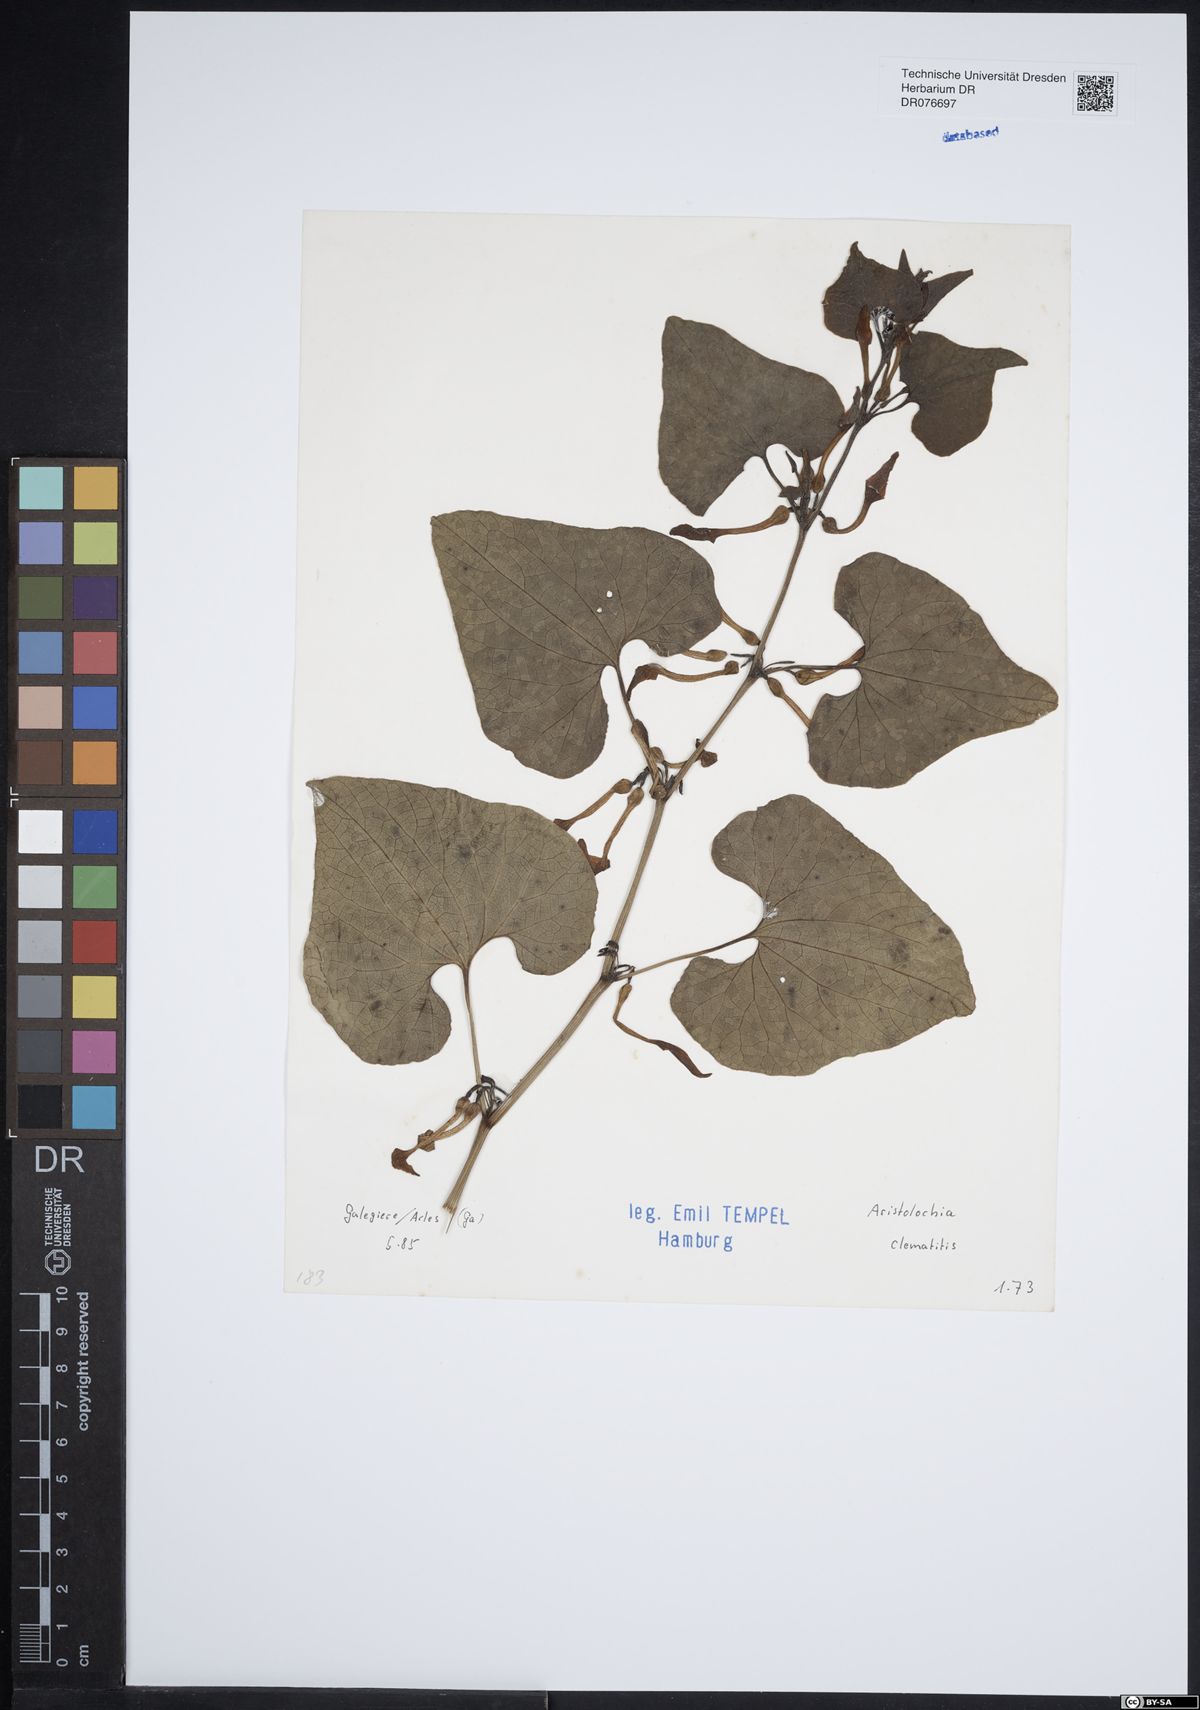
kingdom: Plantae
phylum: Tracheophyta
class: Magnoliopsida
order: Piperales
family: Aristolochiaceae
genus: Aristolochia
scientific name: Aristolochia clematitis
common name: Birthwort
